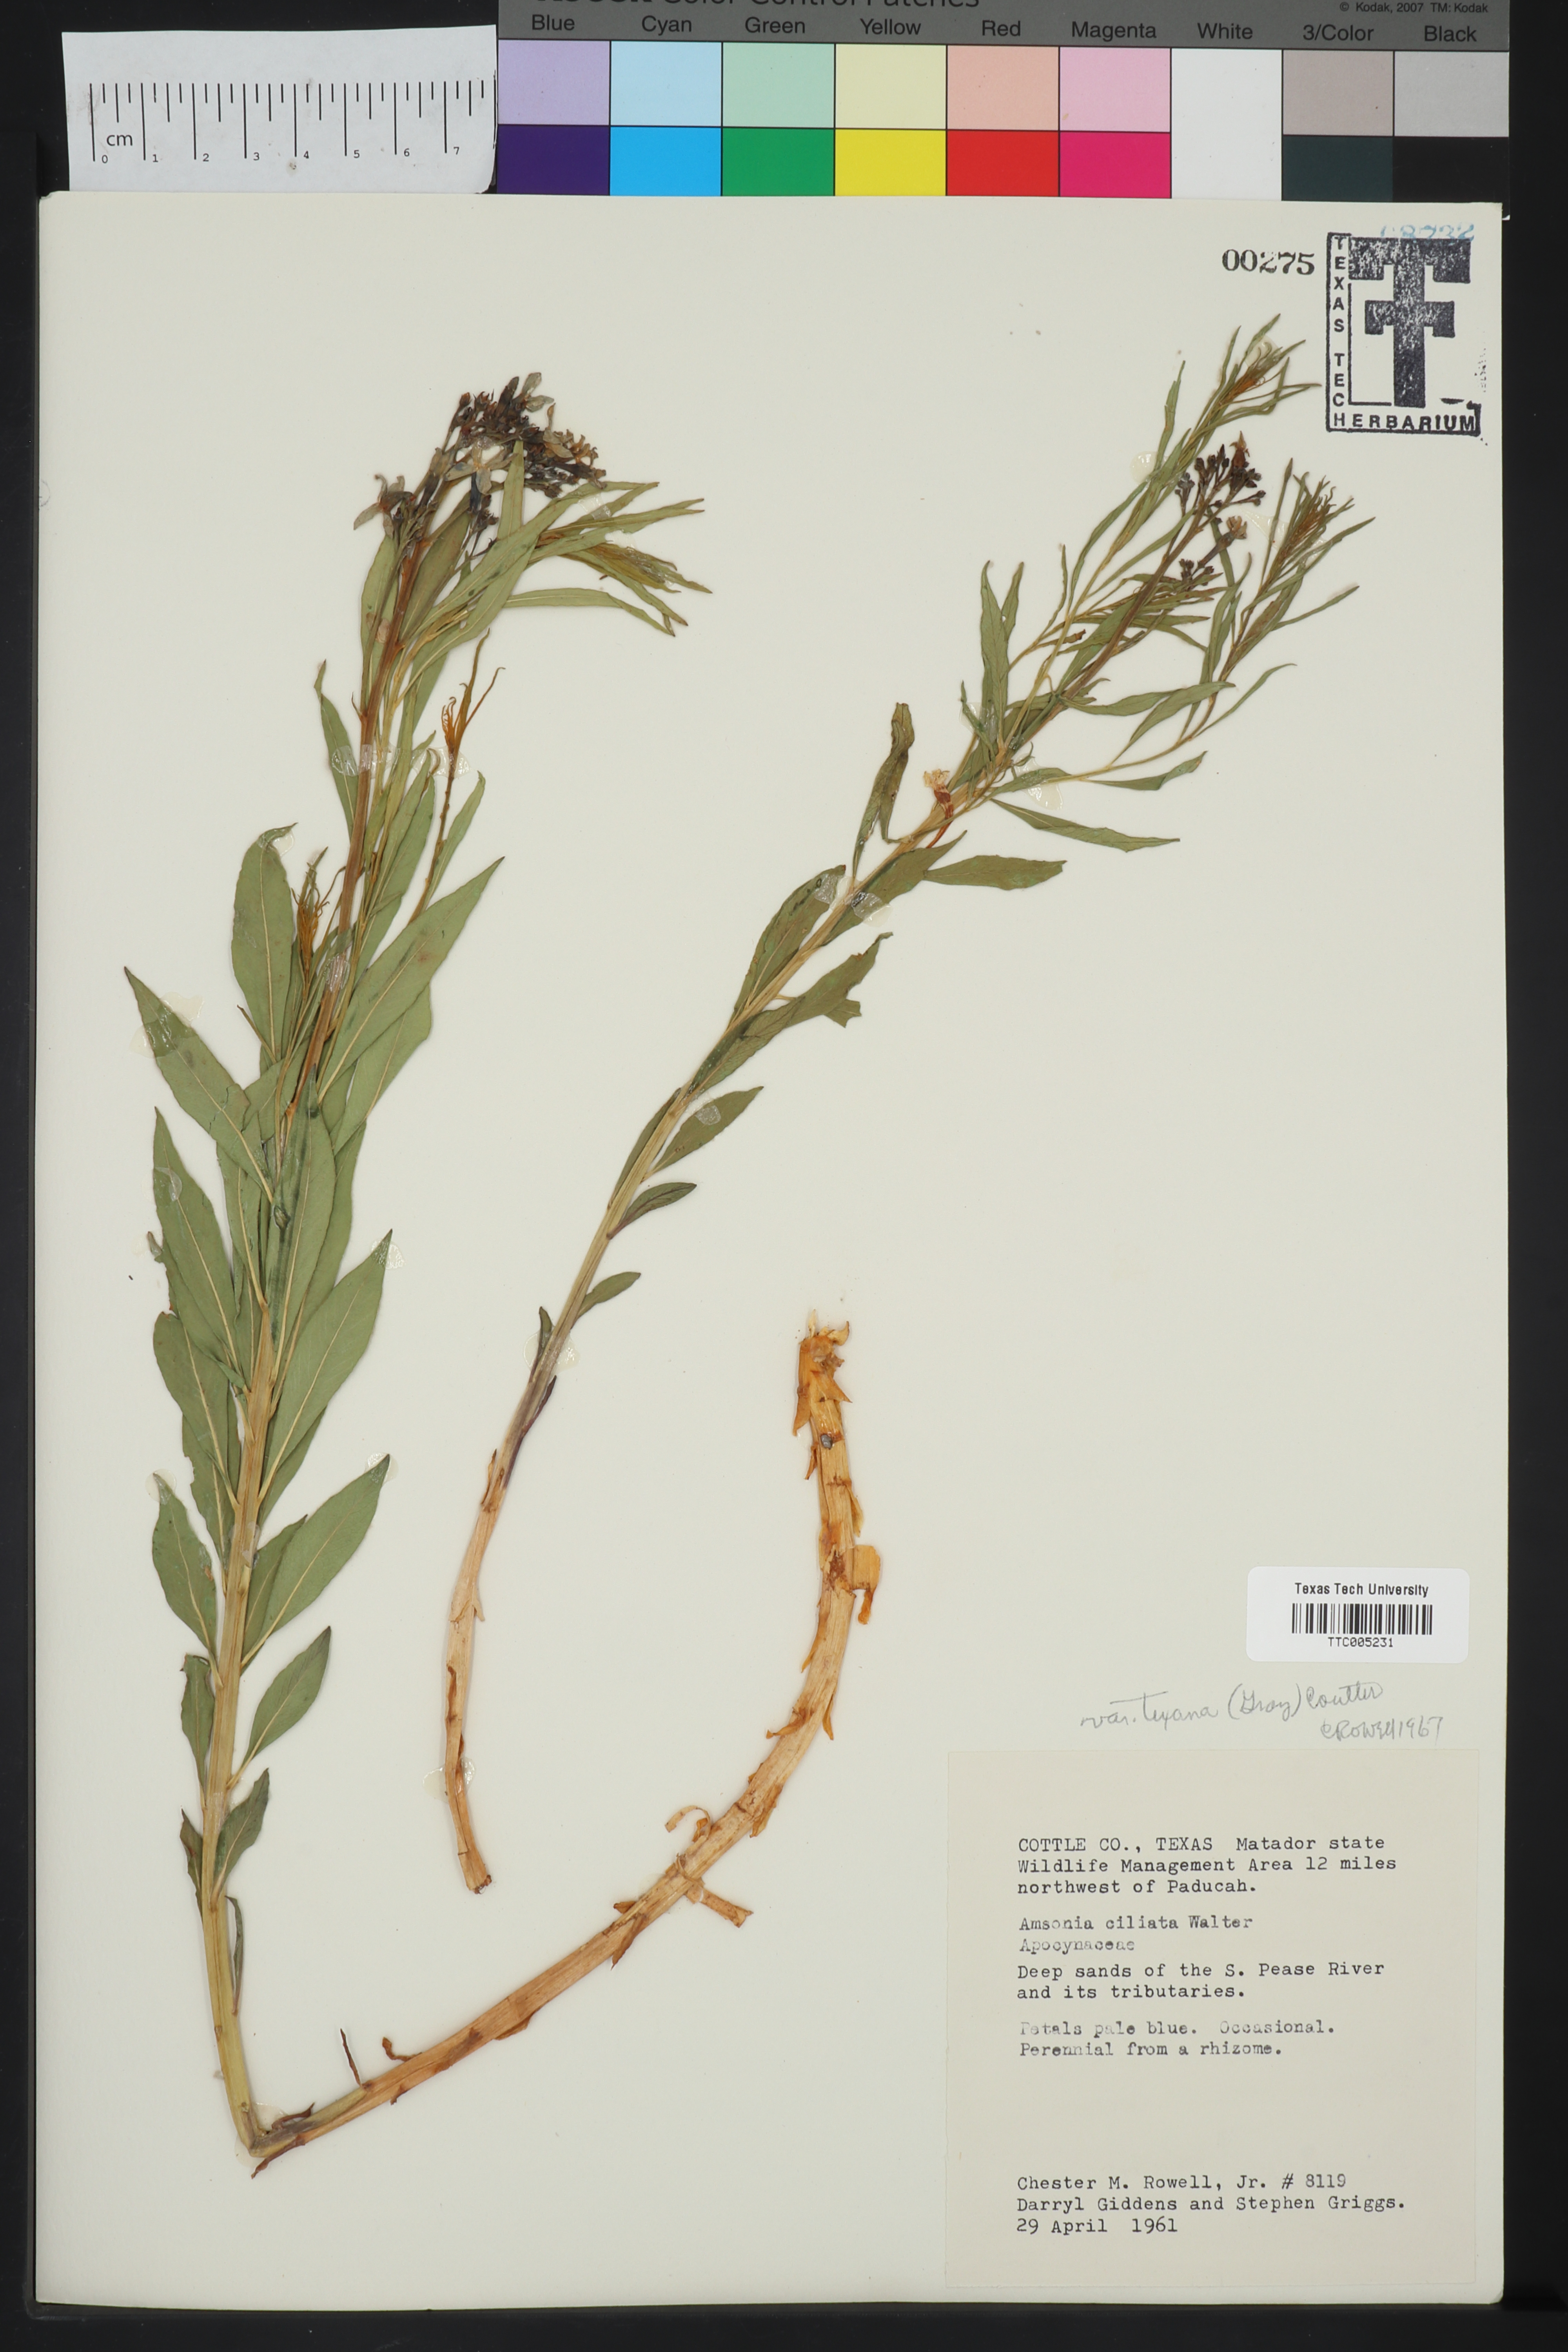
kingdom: Plantae
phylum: Tracheophyta
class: Magnoliopsida
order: Gentianales
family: Apocynaceae
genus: Amsonia
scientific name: Amsonia ciliata
